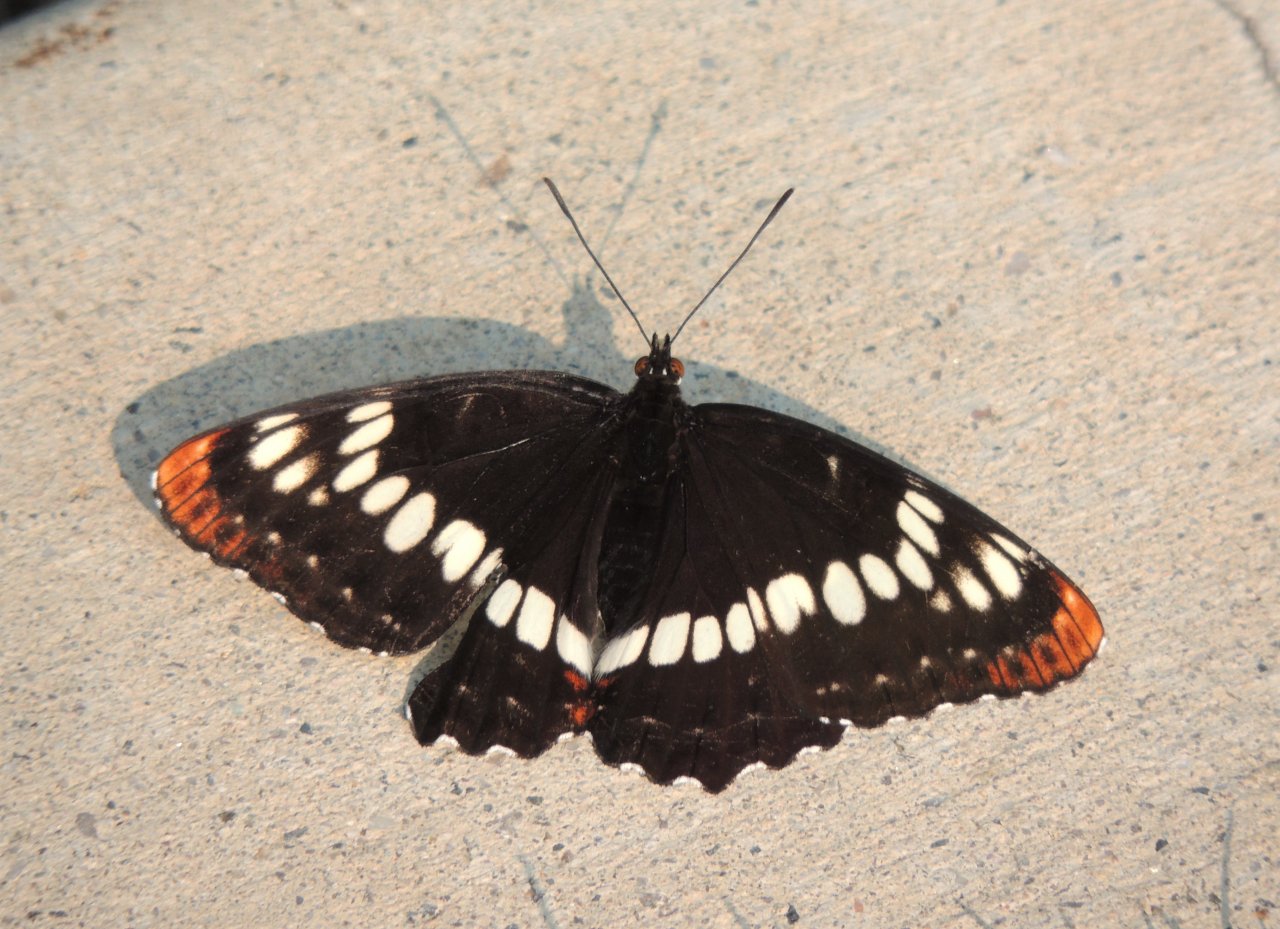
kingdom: Animalia
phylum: Arthropoda
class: Insecta
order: Lepidoptera
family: Nymphalidae
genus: Limenitis
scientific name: Limenitis lorquini
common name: Lorquin's Admiral
